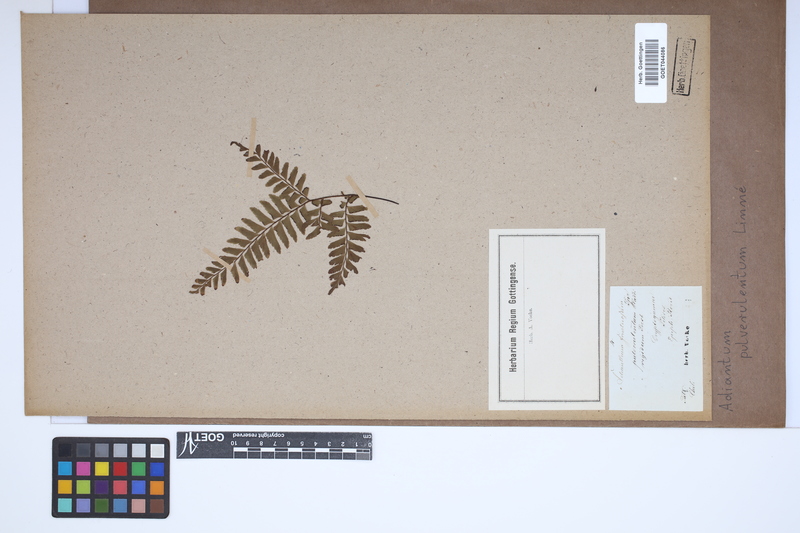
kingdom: Plantae
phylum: Tracheophyta
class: Polypodiopsida
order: Polypodiales
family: Pteridaceae
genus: Adiantum
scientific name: Adiantum pulverulentum
